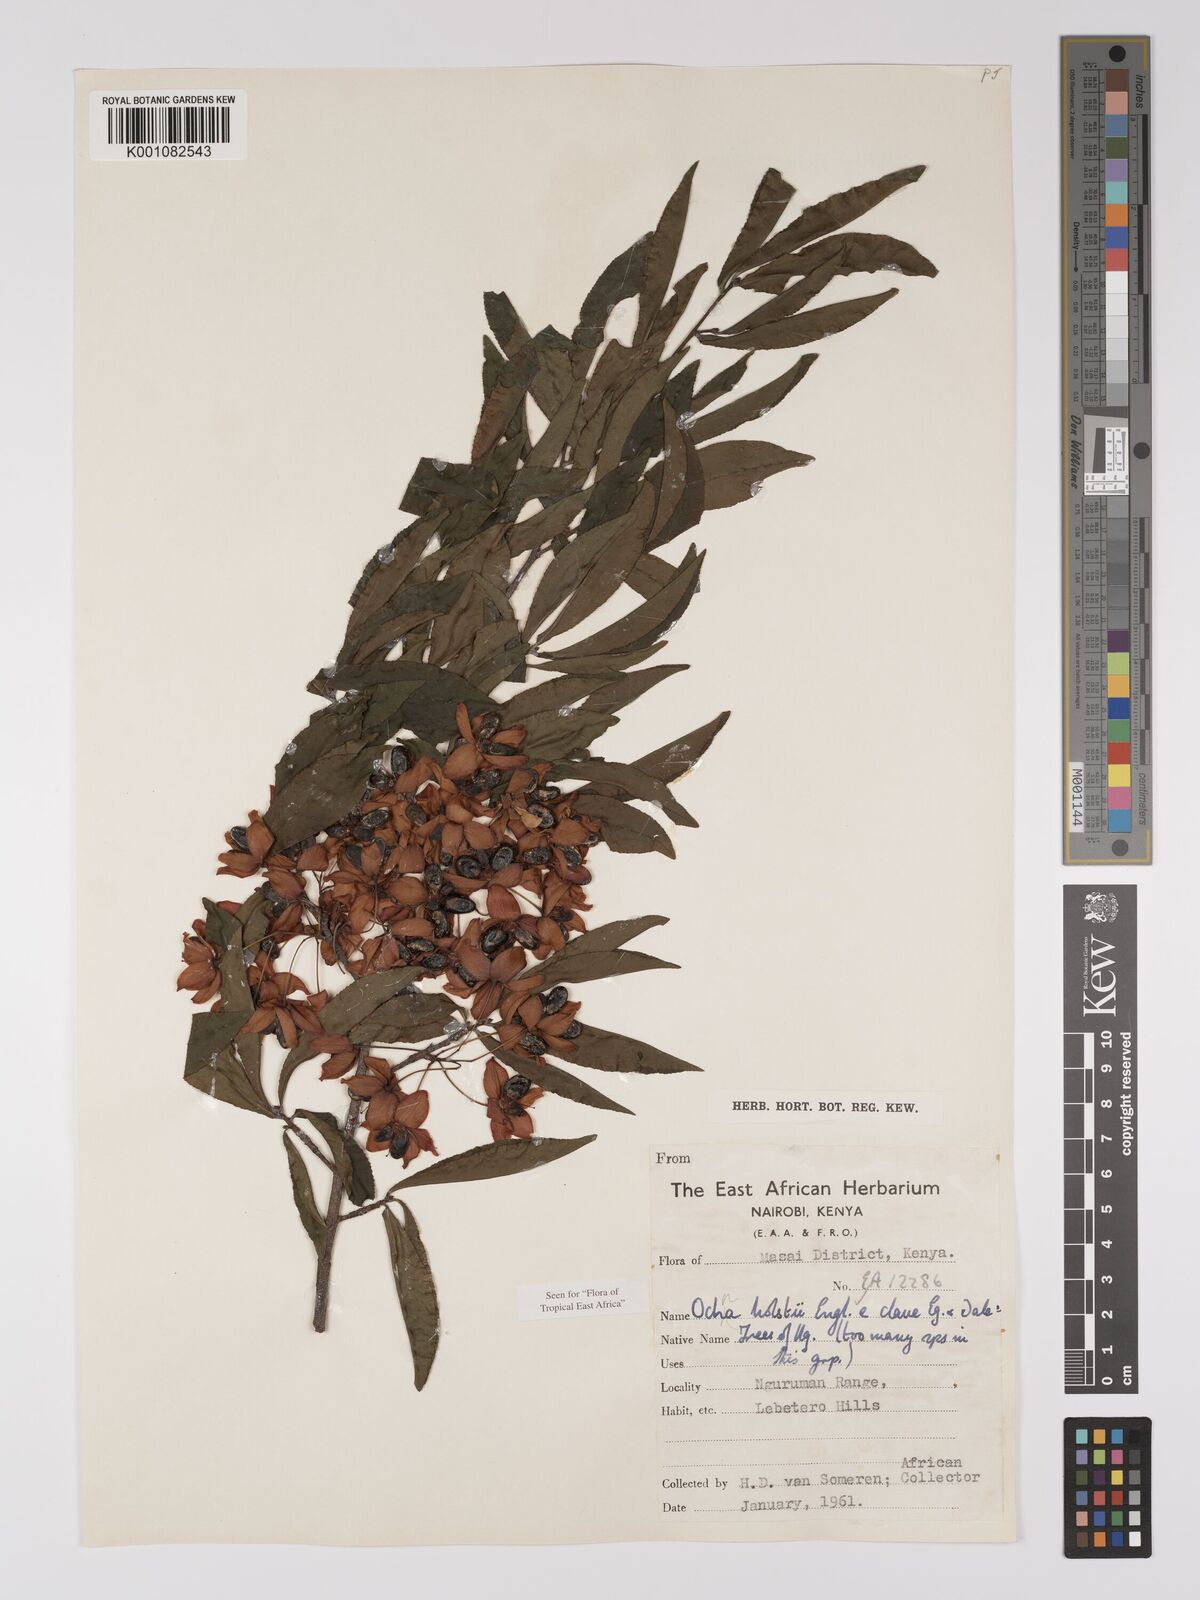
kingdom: Plantae
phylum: Tracheophyta
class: Magnoliopsida
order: Malpighiales
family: Ochnaceae
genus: Ochna
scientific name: Ochna holstii
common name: Red ironwood
